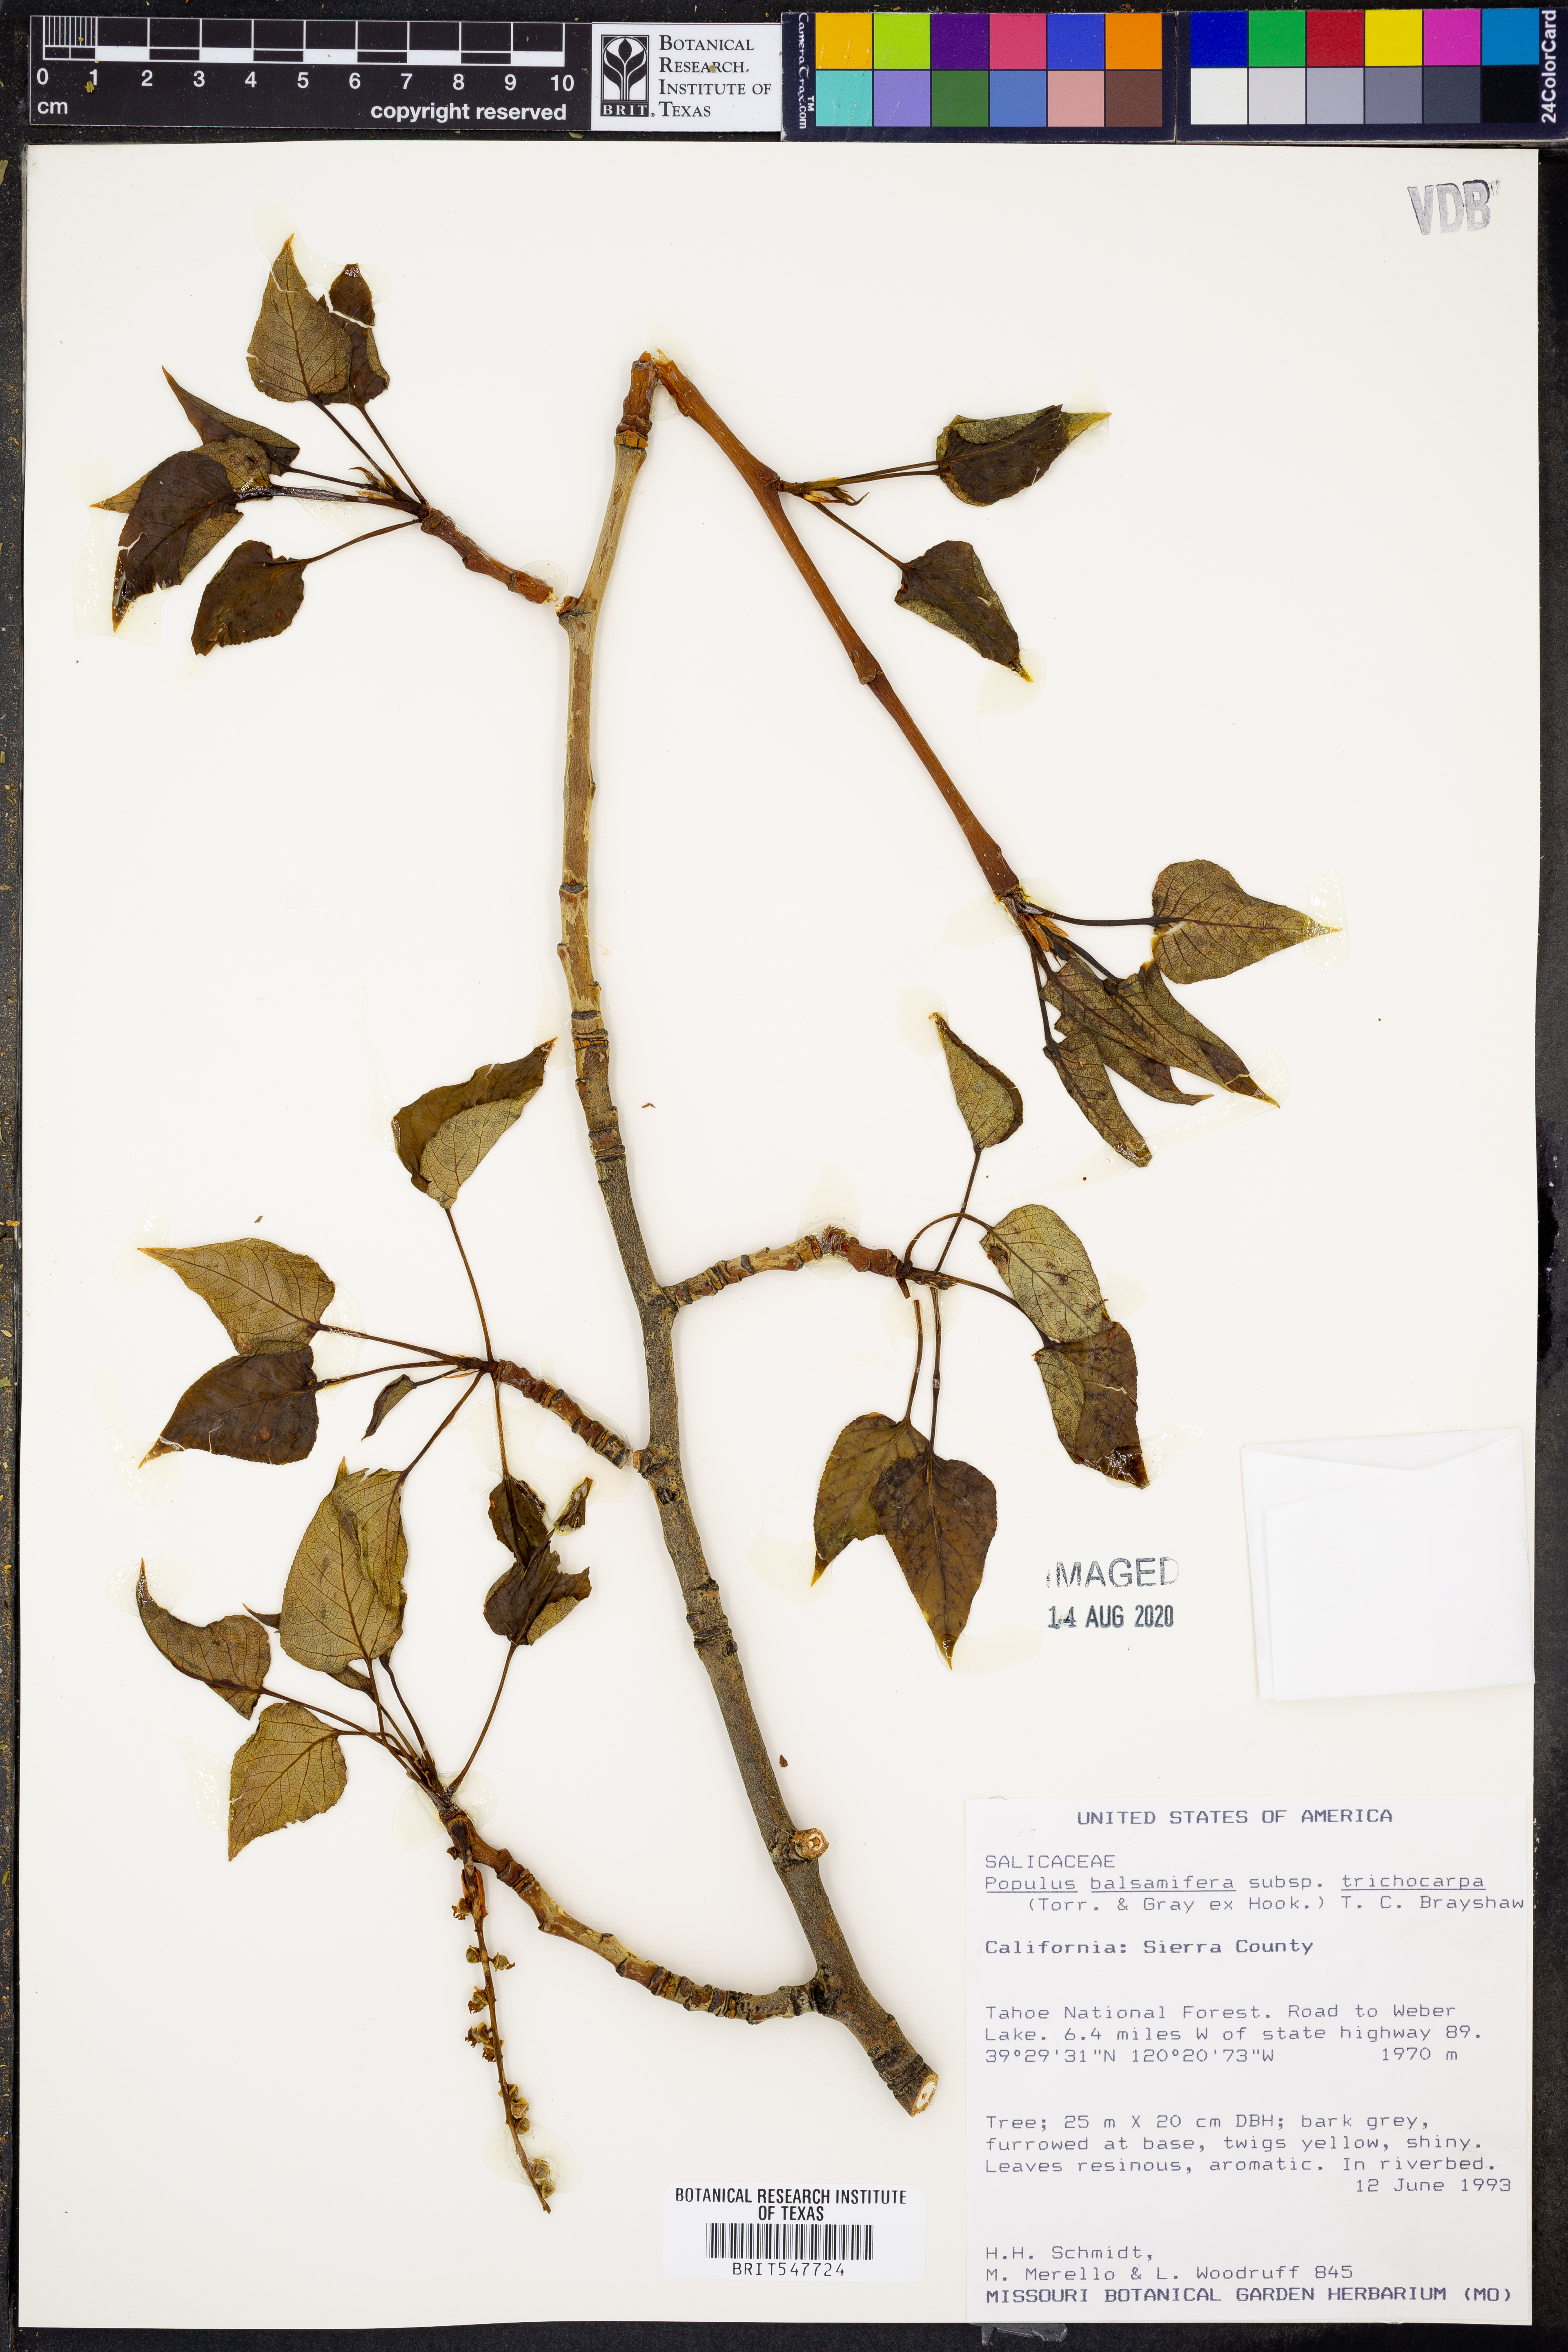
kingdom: Plantae
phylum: Tracheophyta
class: Magnoliopsida
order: Malpighiales
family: Salicaceae
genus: Populus
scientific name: Populus trichocarpa
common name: Black cottonwood
